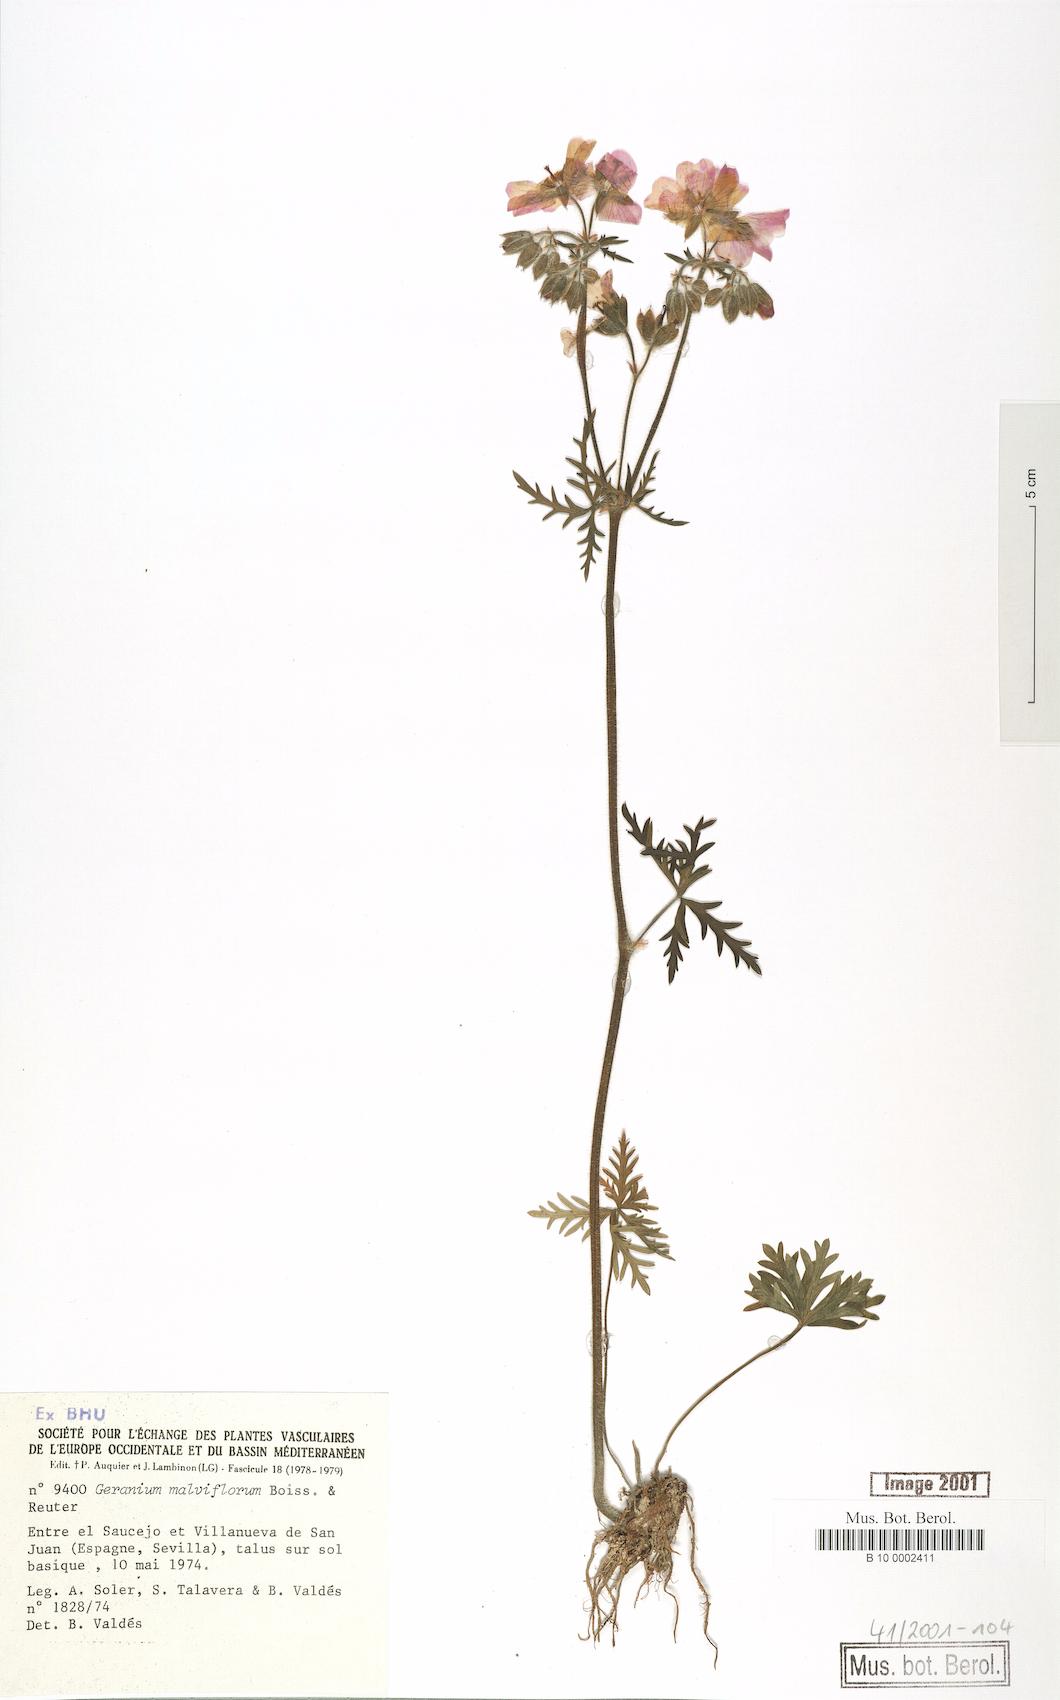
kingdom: Plantae
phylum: Tracheophyta
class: Magnoliopsida
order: Geraniales
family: Geraniaceae
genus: Geranium
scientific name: Geranium malviflorum
